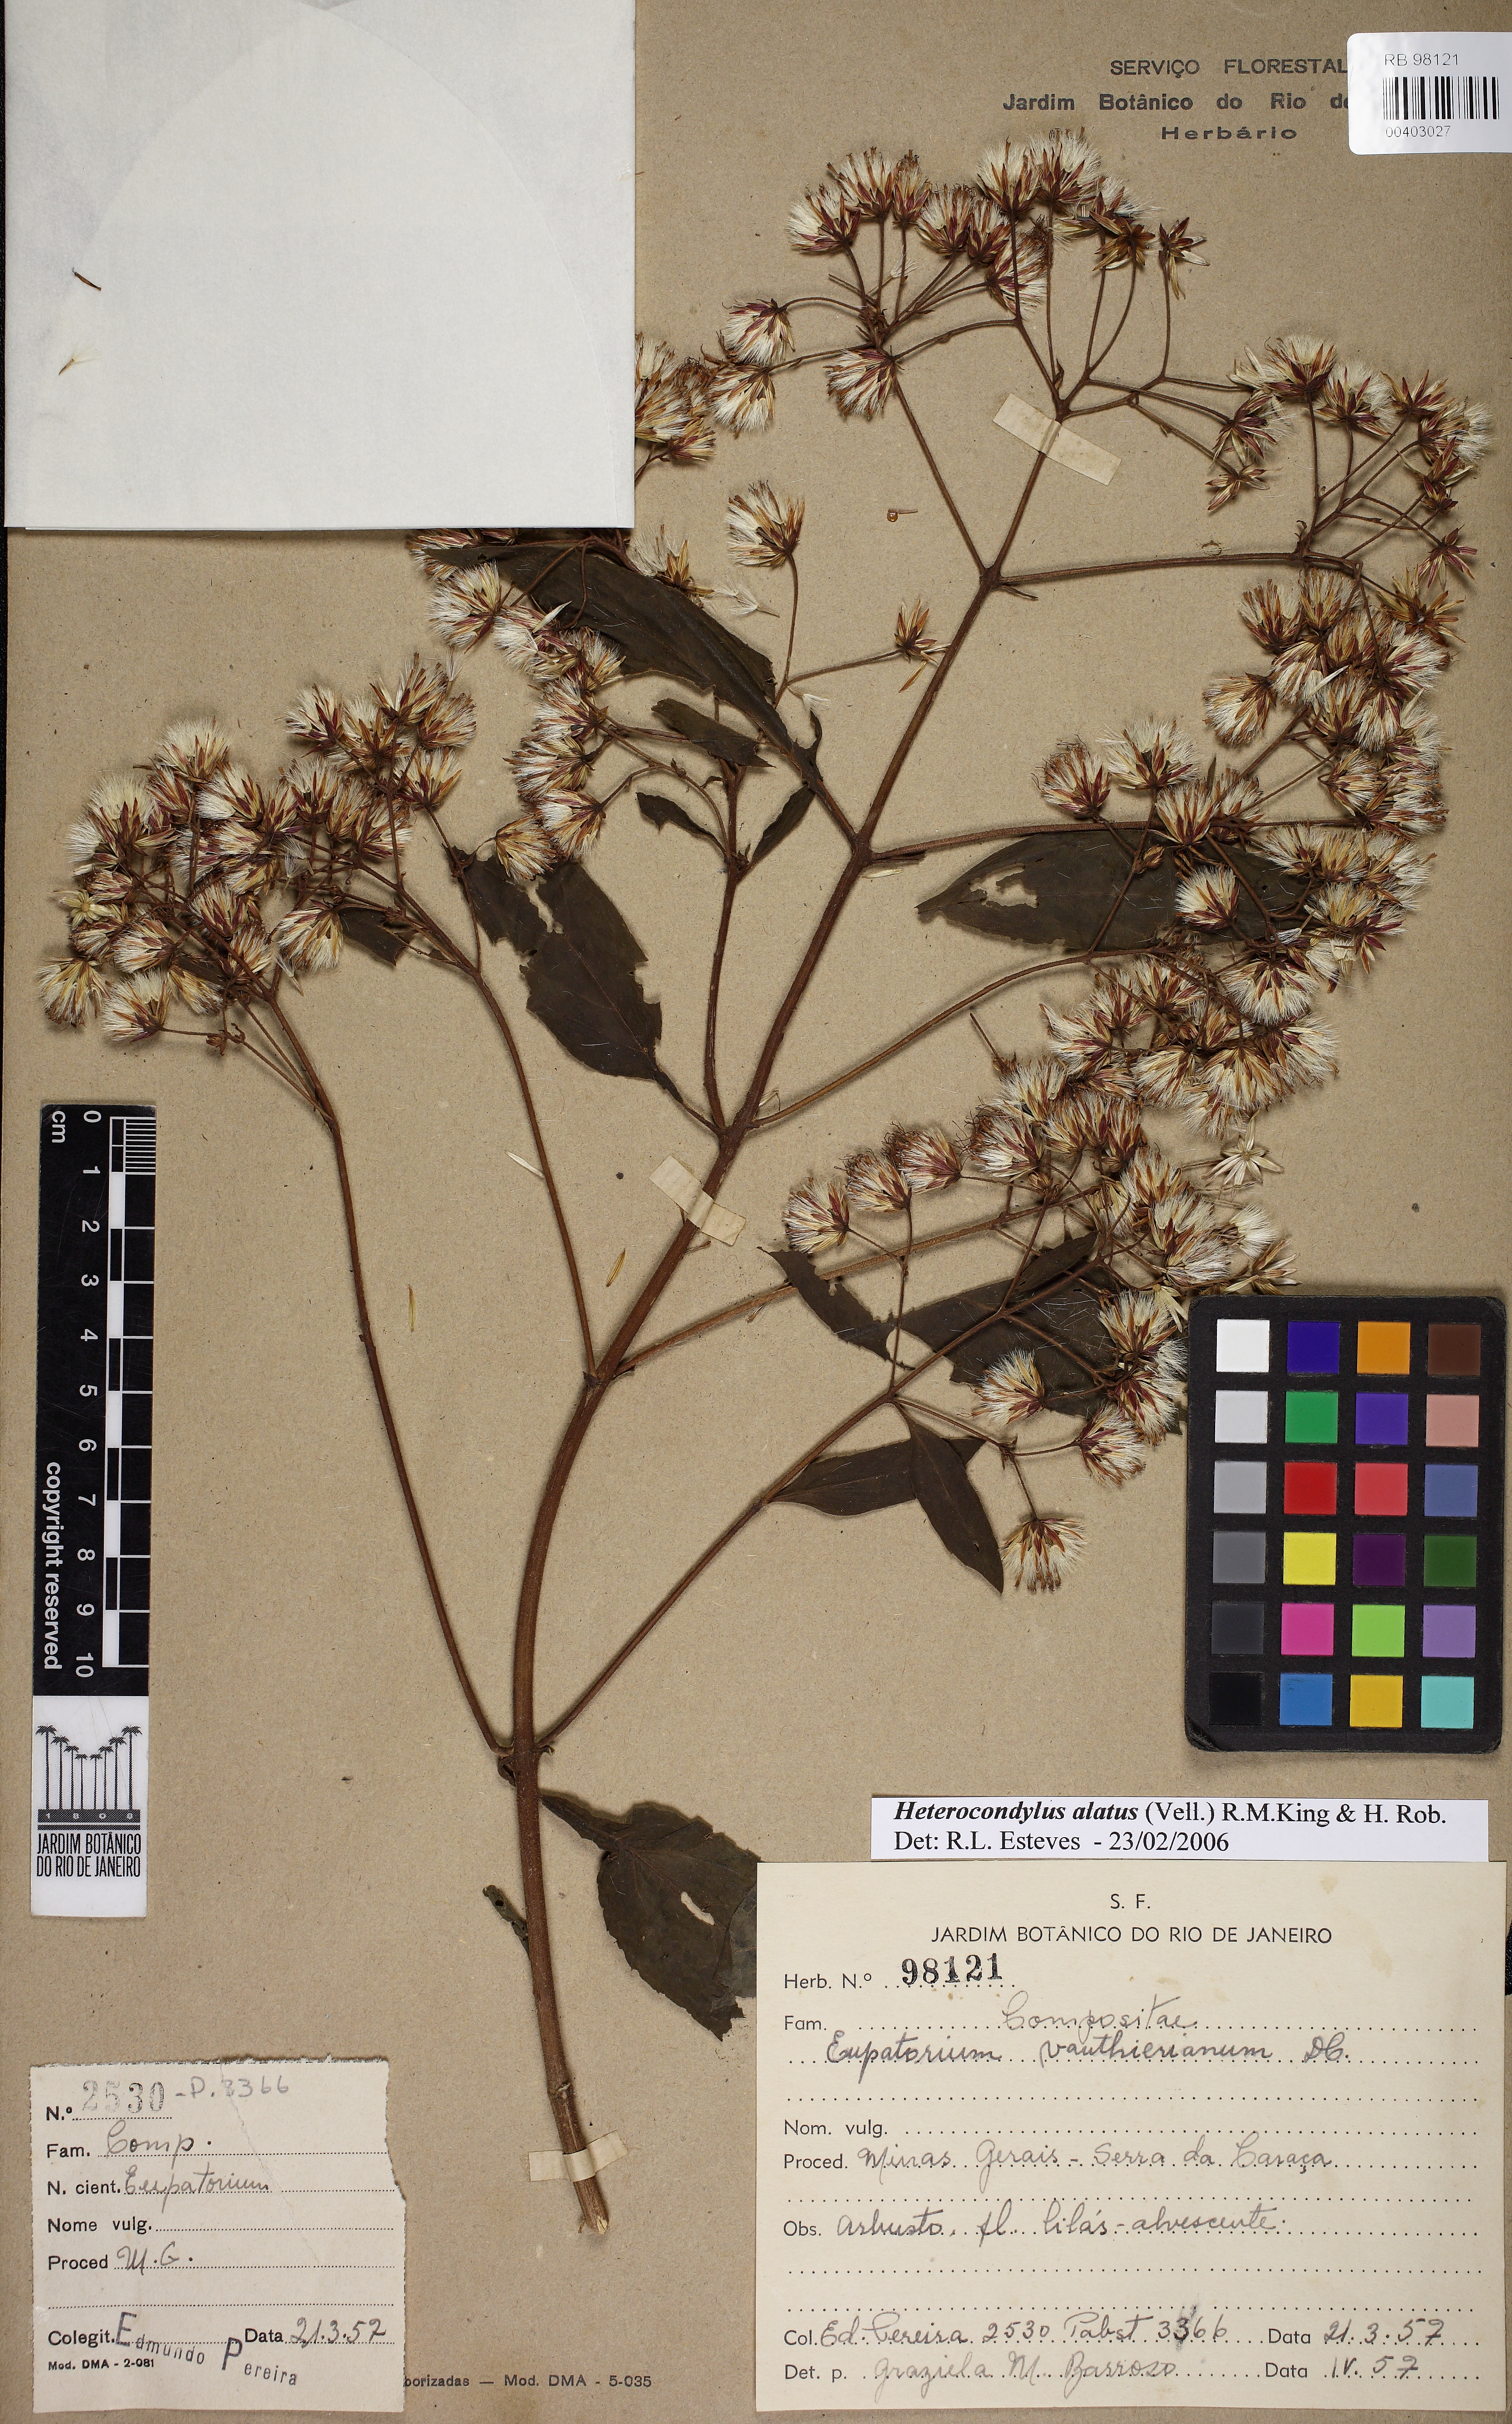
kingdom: Plantae
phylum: Tracheophyta
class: Magnoliopsida
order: Asterales
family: Asteraceae
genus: Heterocondylus
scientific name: Heterocondylus alatus
